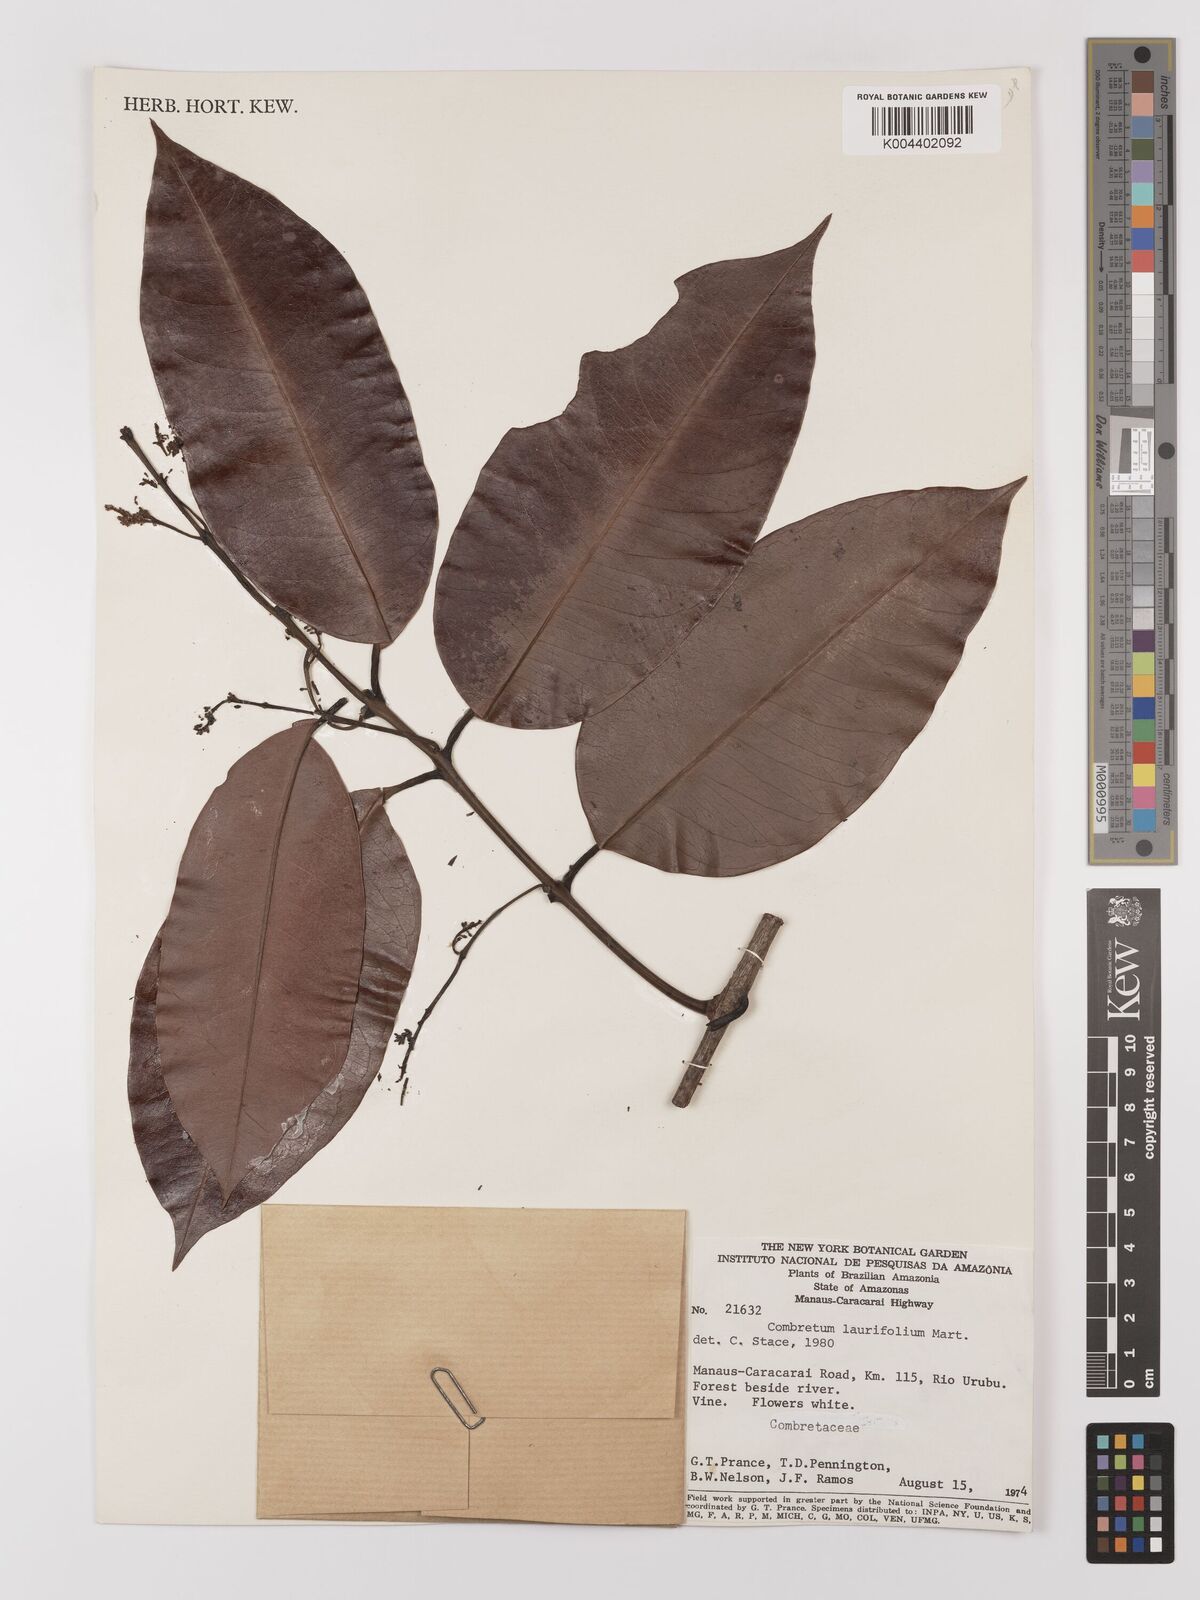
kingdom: Plantae
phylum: Tracheophyta
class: Magnoliopsida
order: Myrtales
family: Combretaceae
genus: Combretum
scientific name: Combretum
